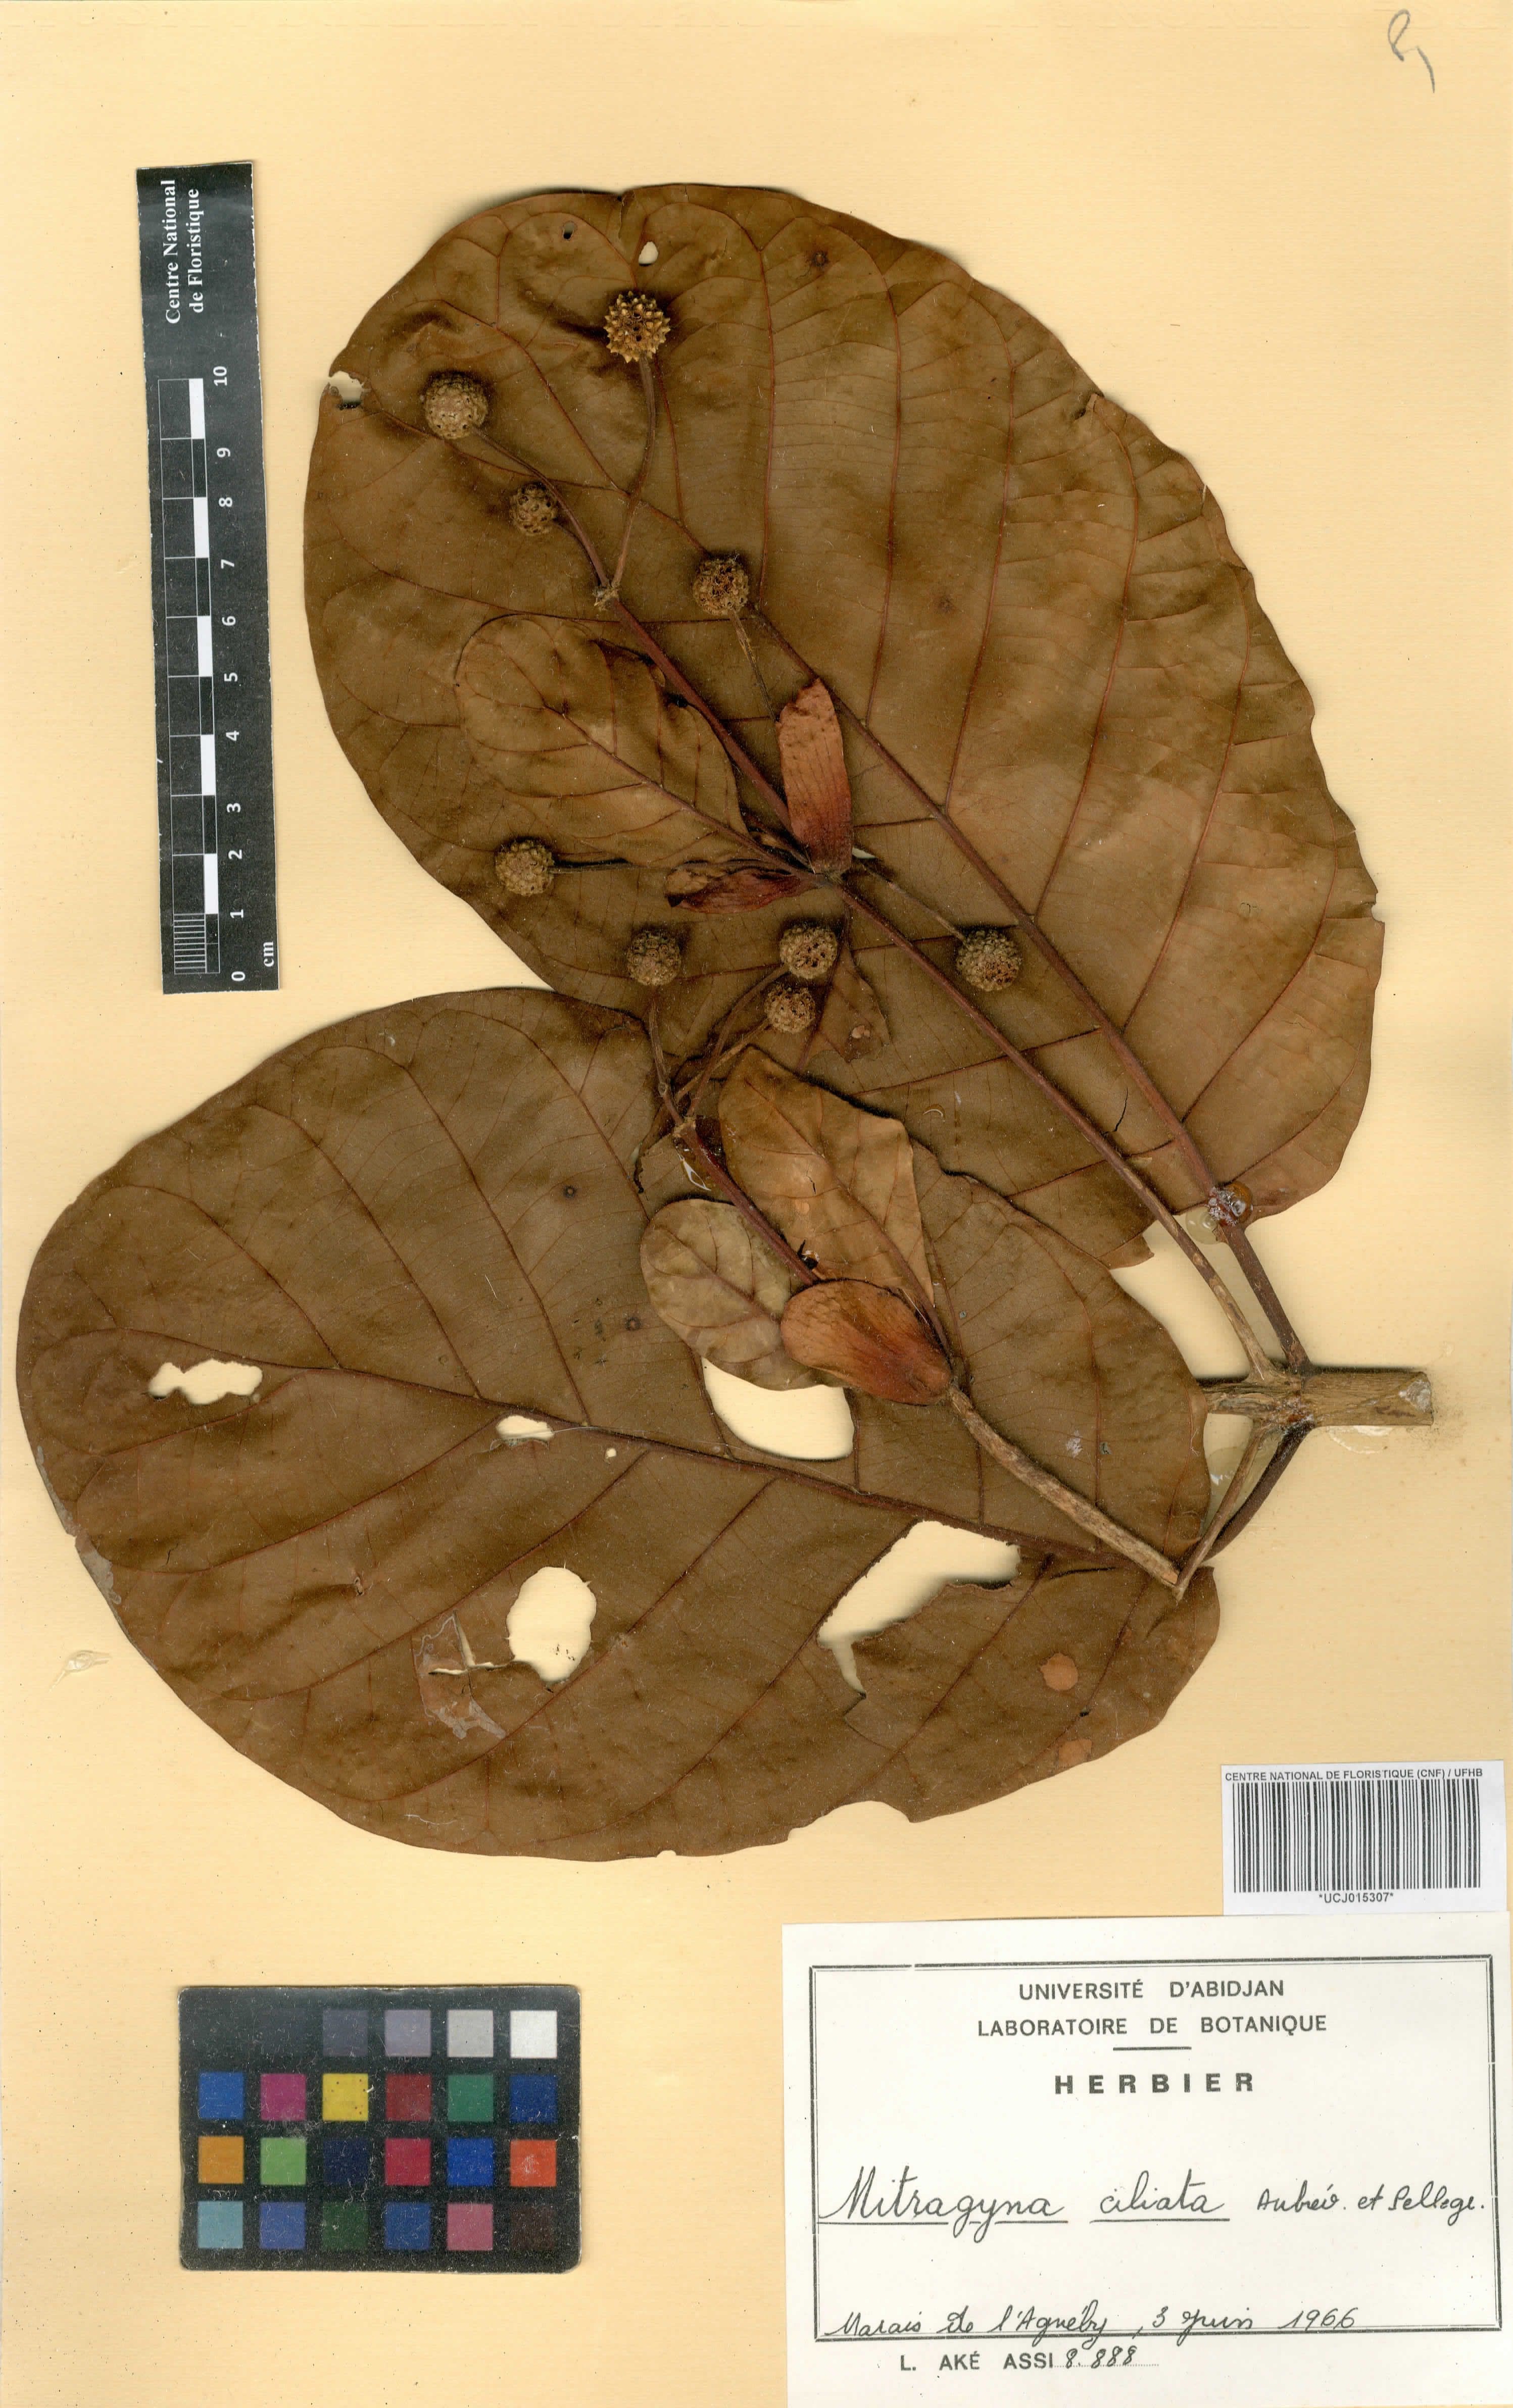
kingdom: Plantae
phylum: Tracheophyta
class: Magnoliopsida
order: Gentianales
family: Rubiaceae
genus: Mitragyna
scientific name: Mitragyna ciliata
